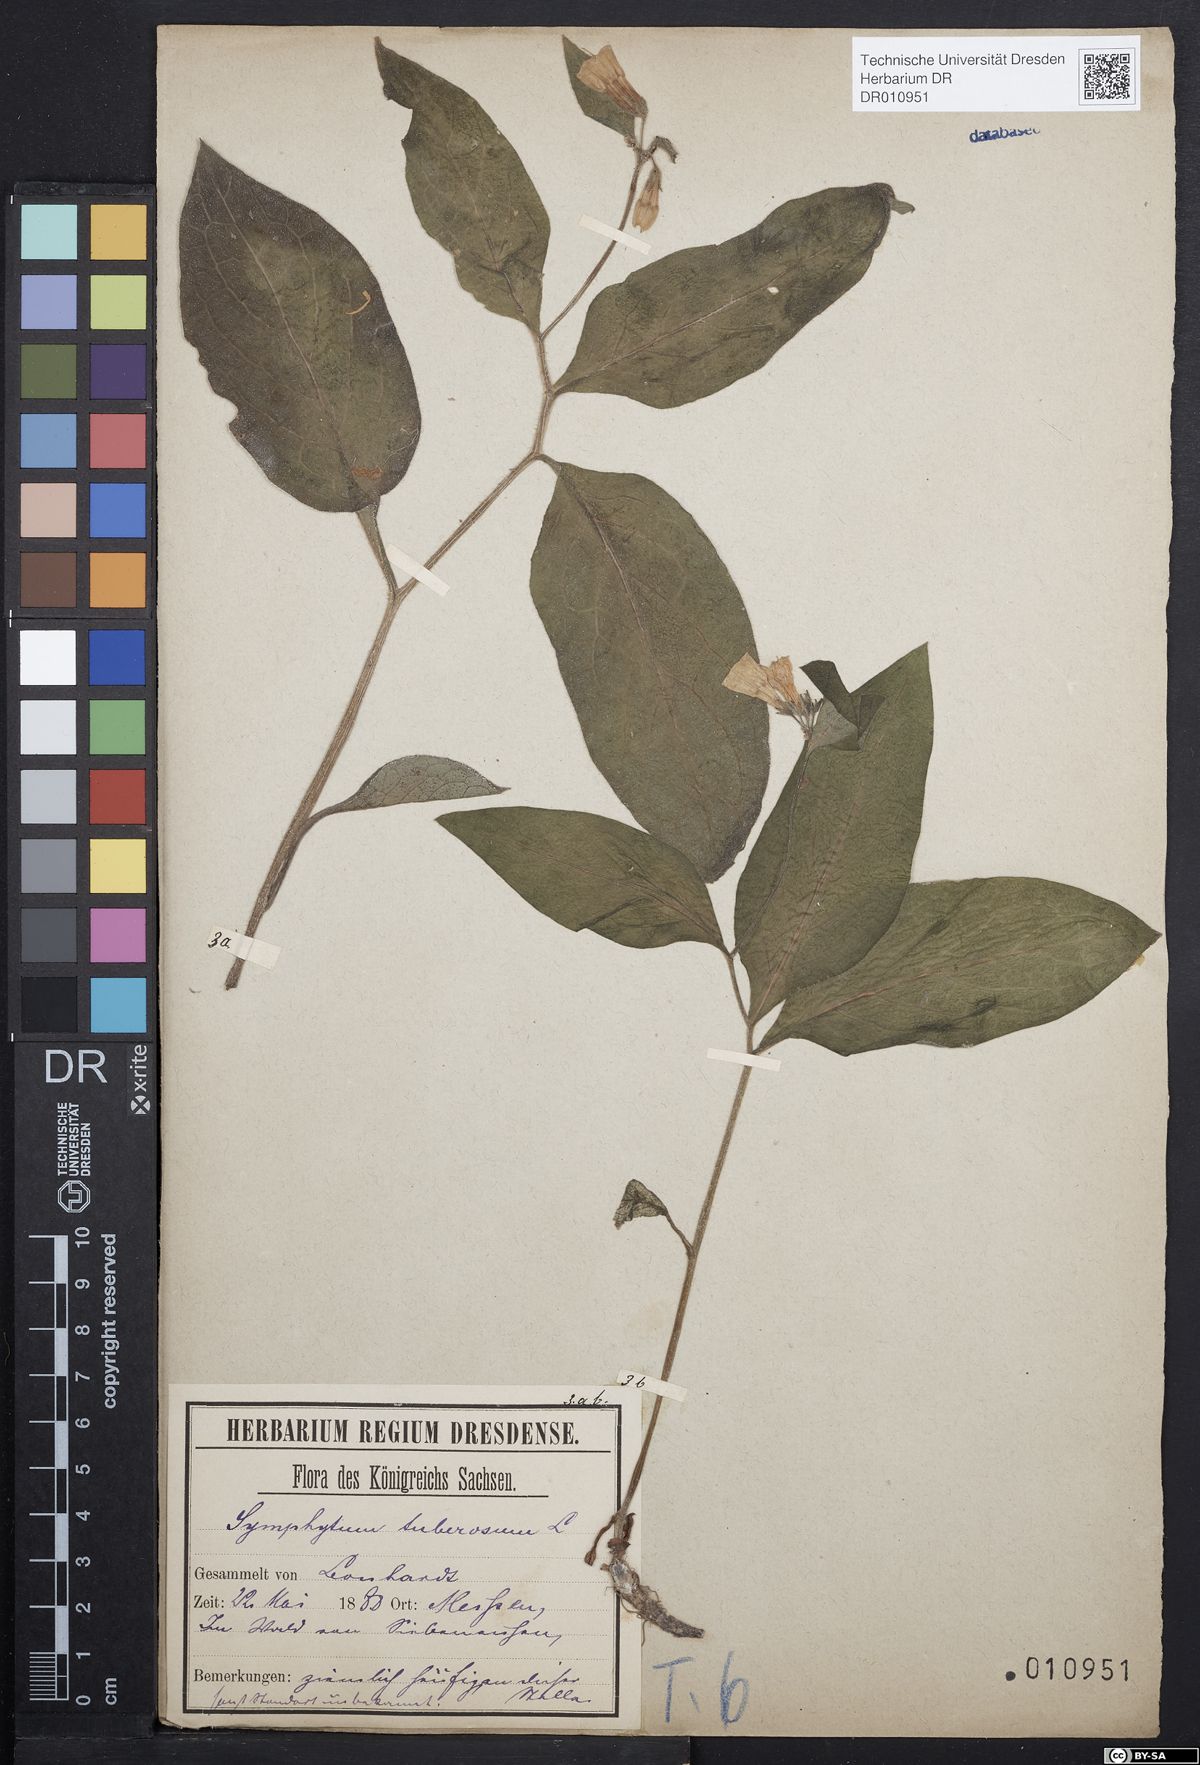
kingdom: Plantae
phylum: Tracheophyta
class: Magnoliopsida
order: Boraginales
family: Boraginaceae
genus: Symphytum
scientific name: Symphytum tuberosum
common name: Tuberous comfrey
